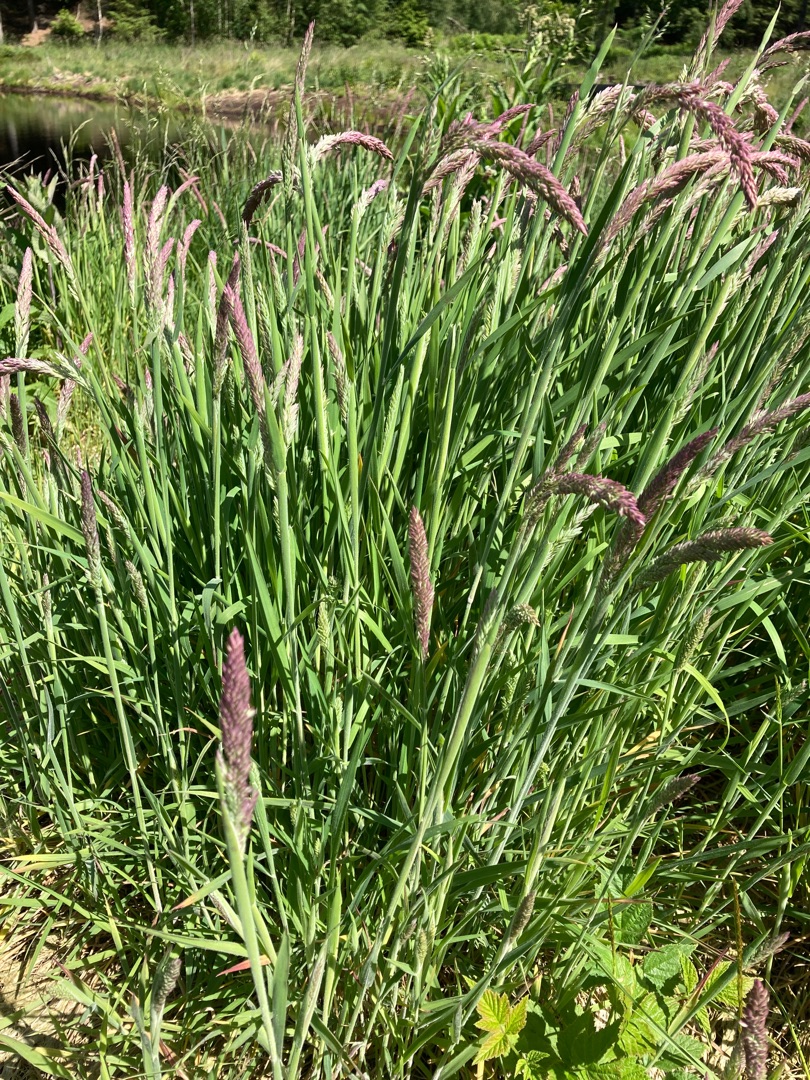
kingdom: Plantae
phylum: Tracheophyta
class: Liliopsida
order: Poales
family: Poaceae
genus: Holcus
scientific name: Holcus lanatus
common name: Fløjlsgræs
